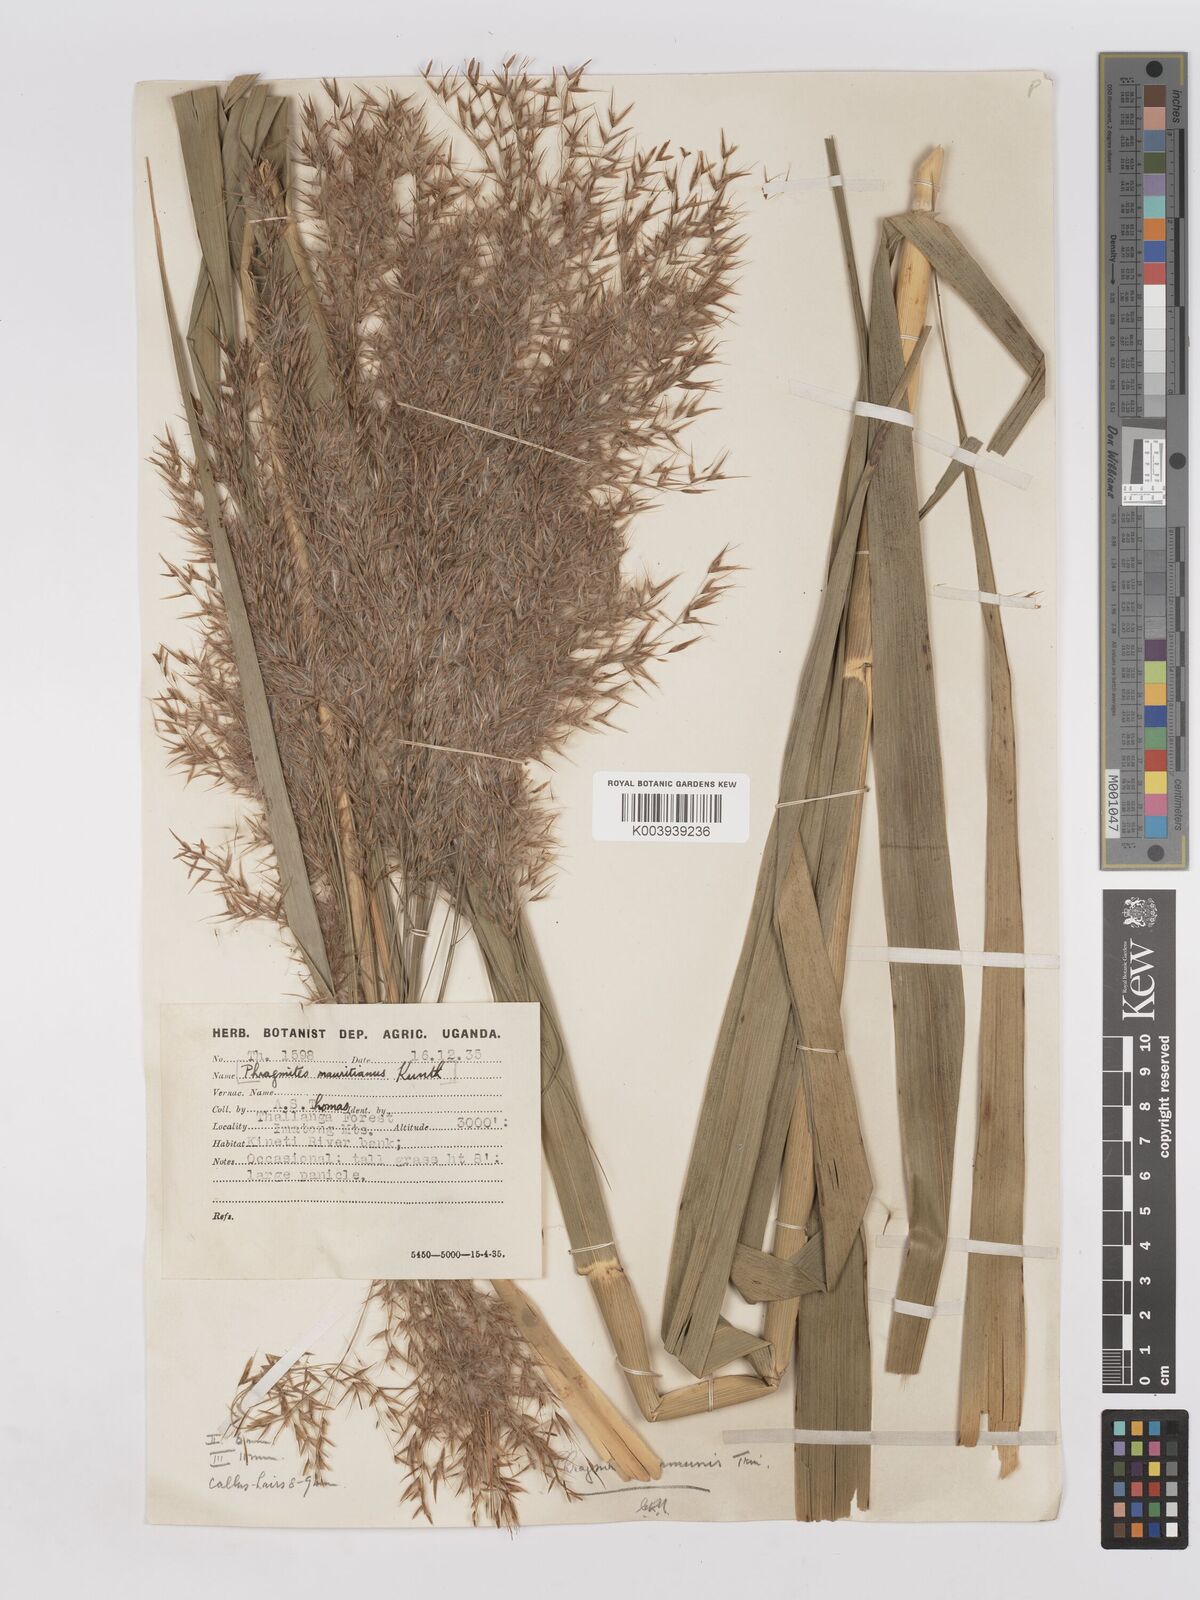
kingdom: Plantae
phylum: Tracheophyta
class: Liliopsida
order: Poales
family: Poaceae
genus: Phragmites
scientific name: Phragmites karka
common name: Tropical reed
